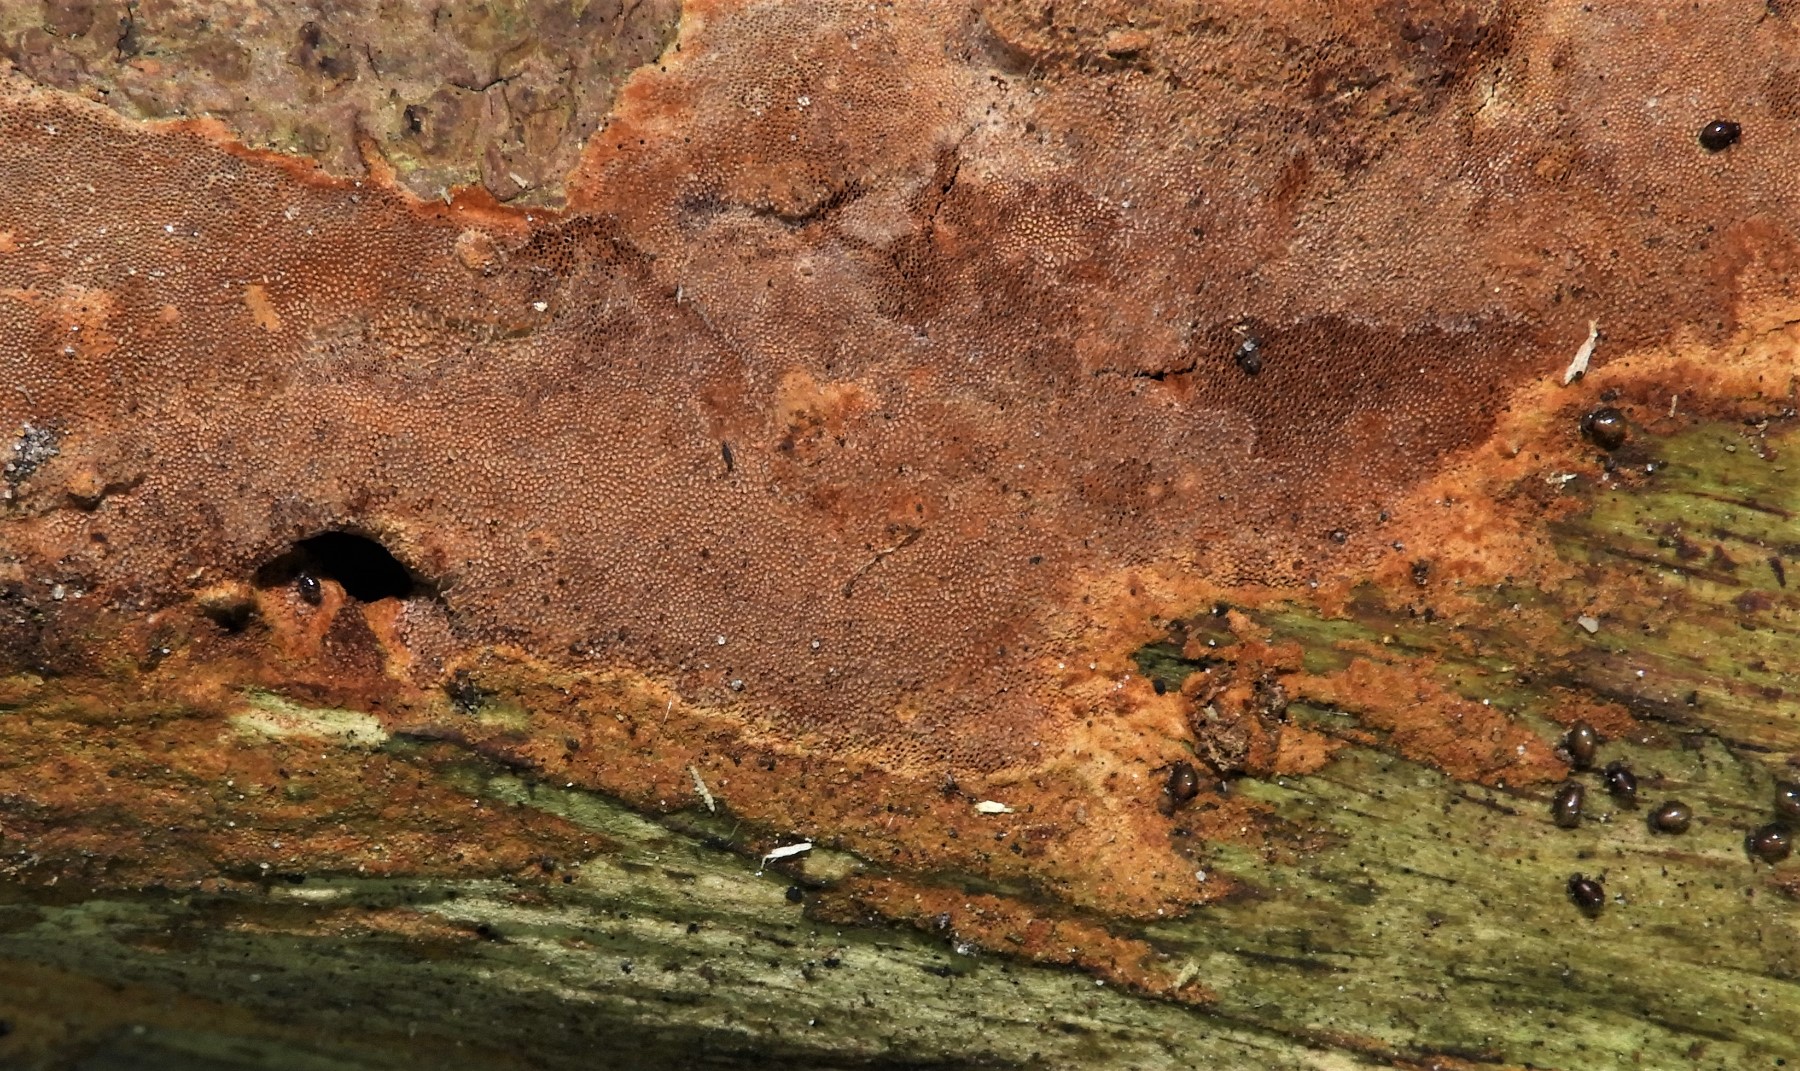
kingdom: Fungi
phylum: Basidiomycota
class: Agaricomycetes
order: Hymenochaetales
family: Hymenochaetaceae
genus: Fuscoporia
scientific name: Fuscoporia ferrea
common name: skorpe-ildporesvamp
